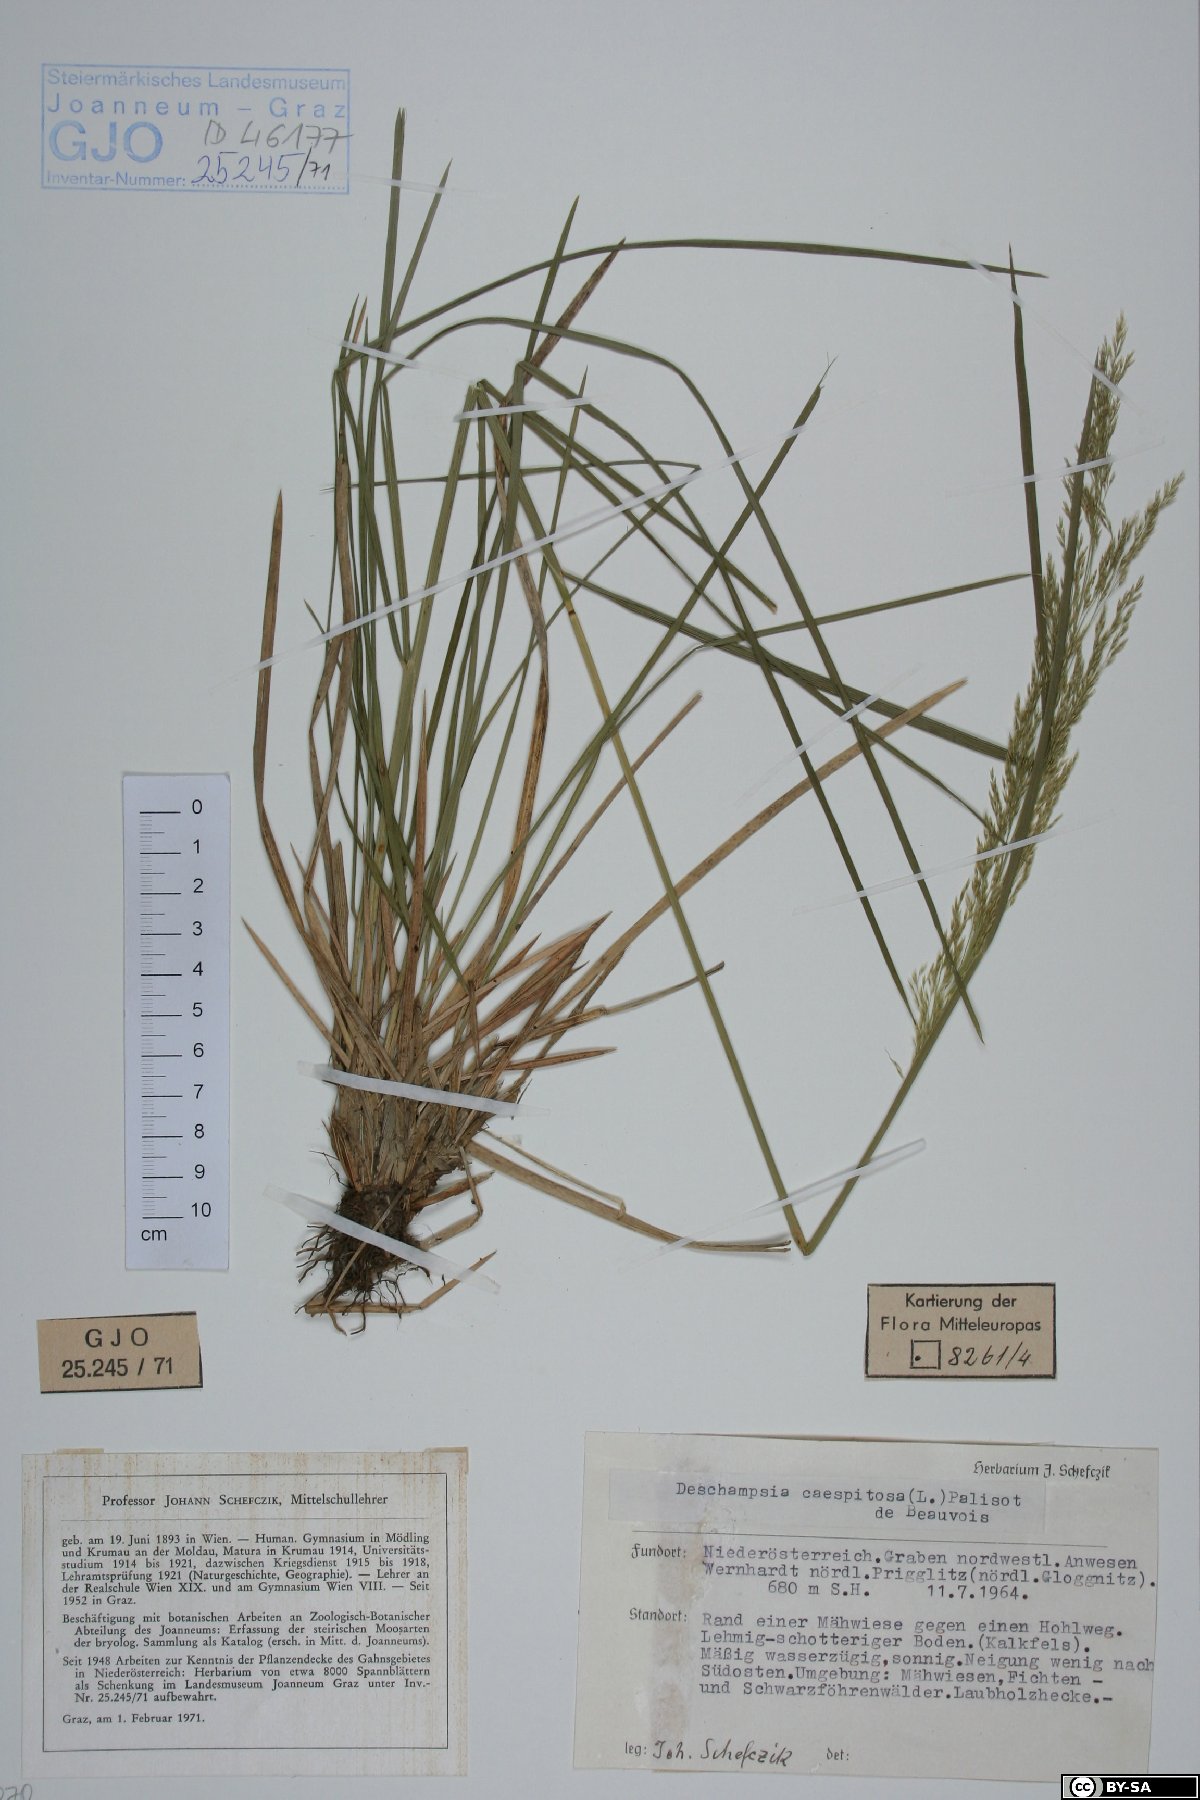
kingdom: Plantae
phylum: Tracheophyta
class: Liliopsida
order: Poales
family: Poaceae
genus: Deschampsia
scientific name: Deschampsia cespitosa
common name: Tufted hair-grass
